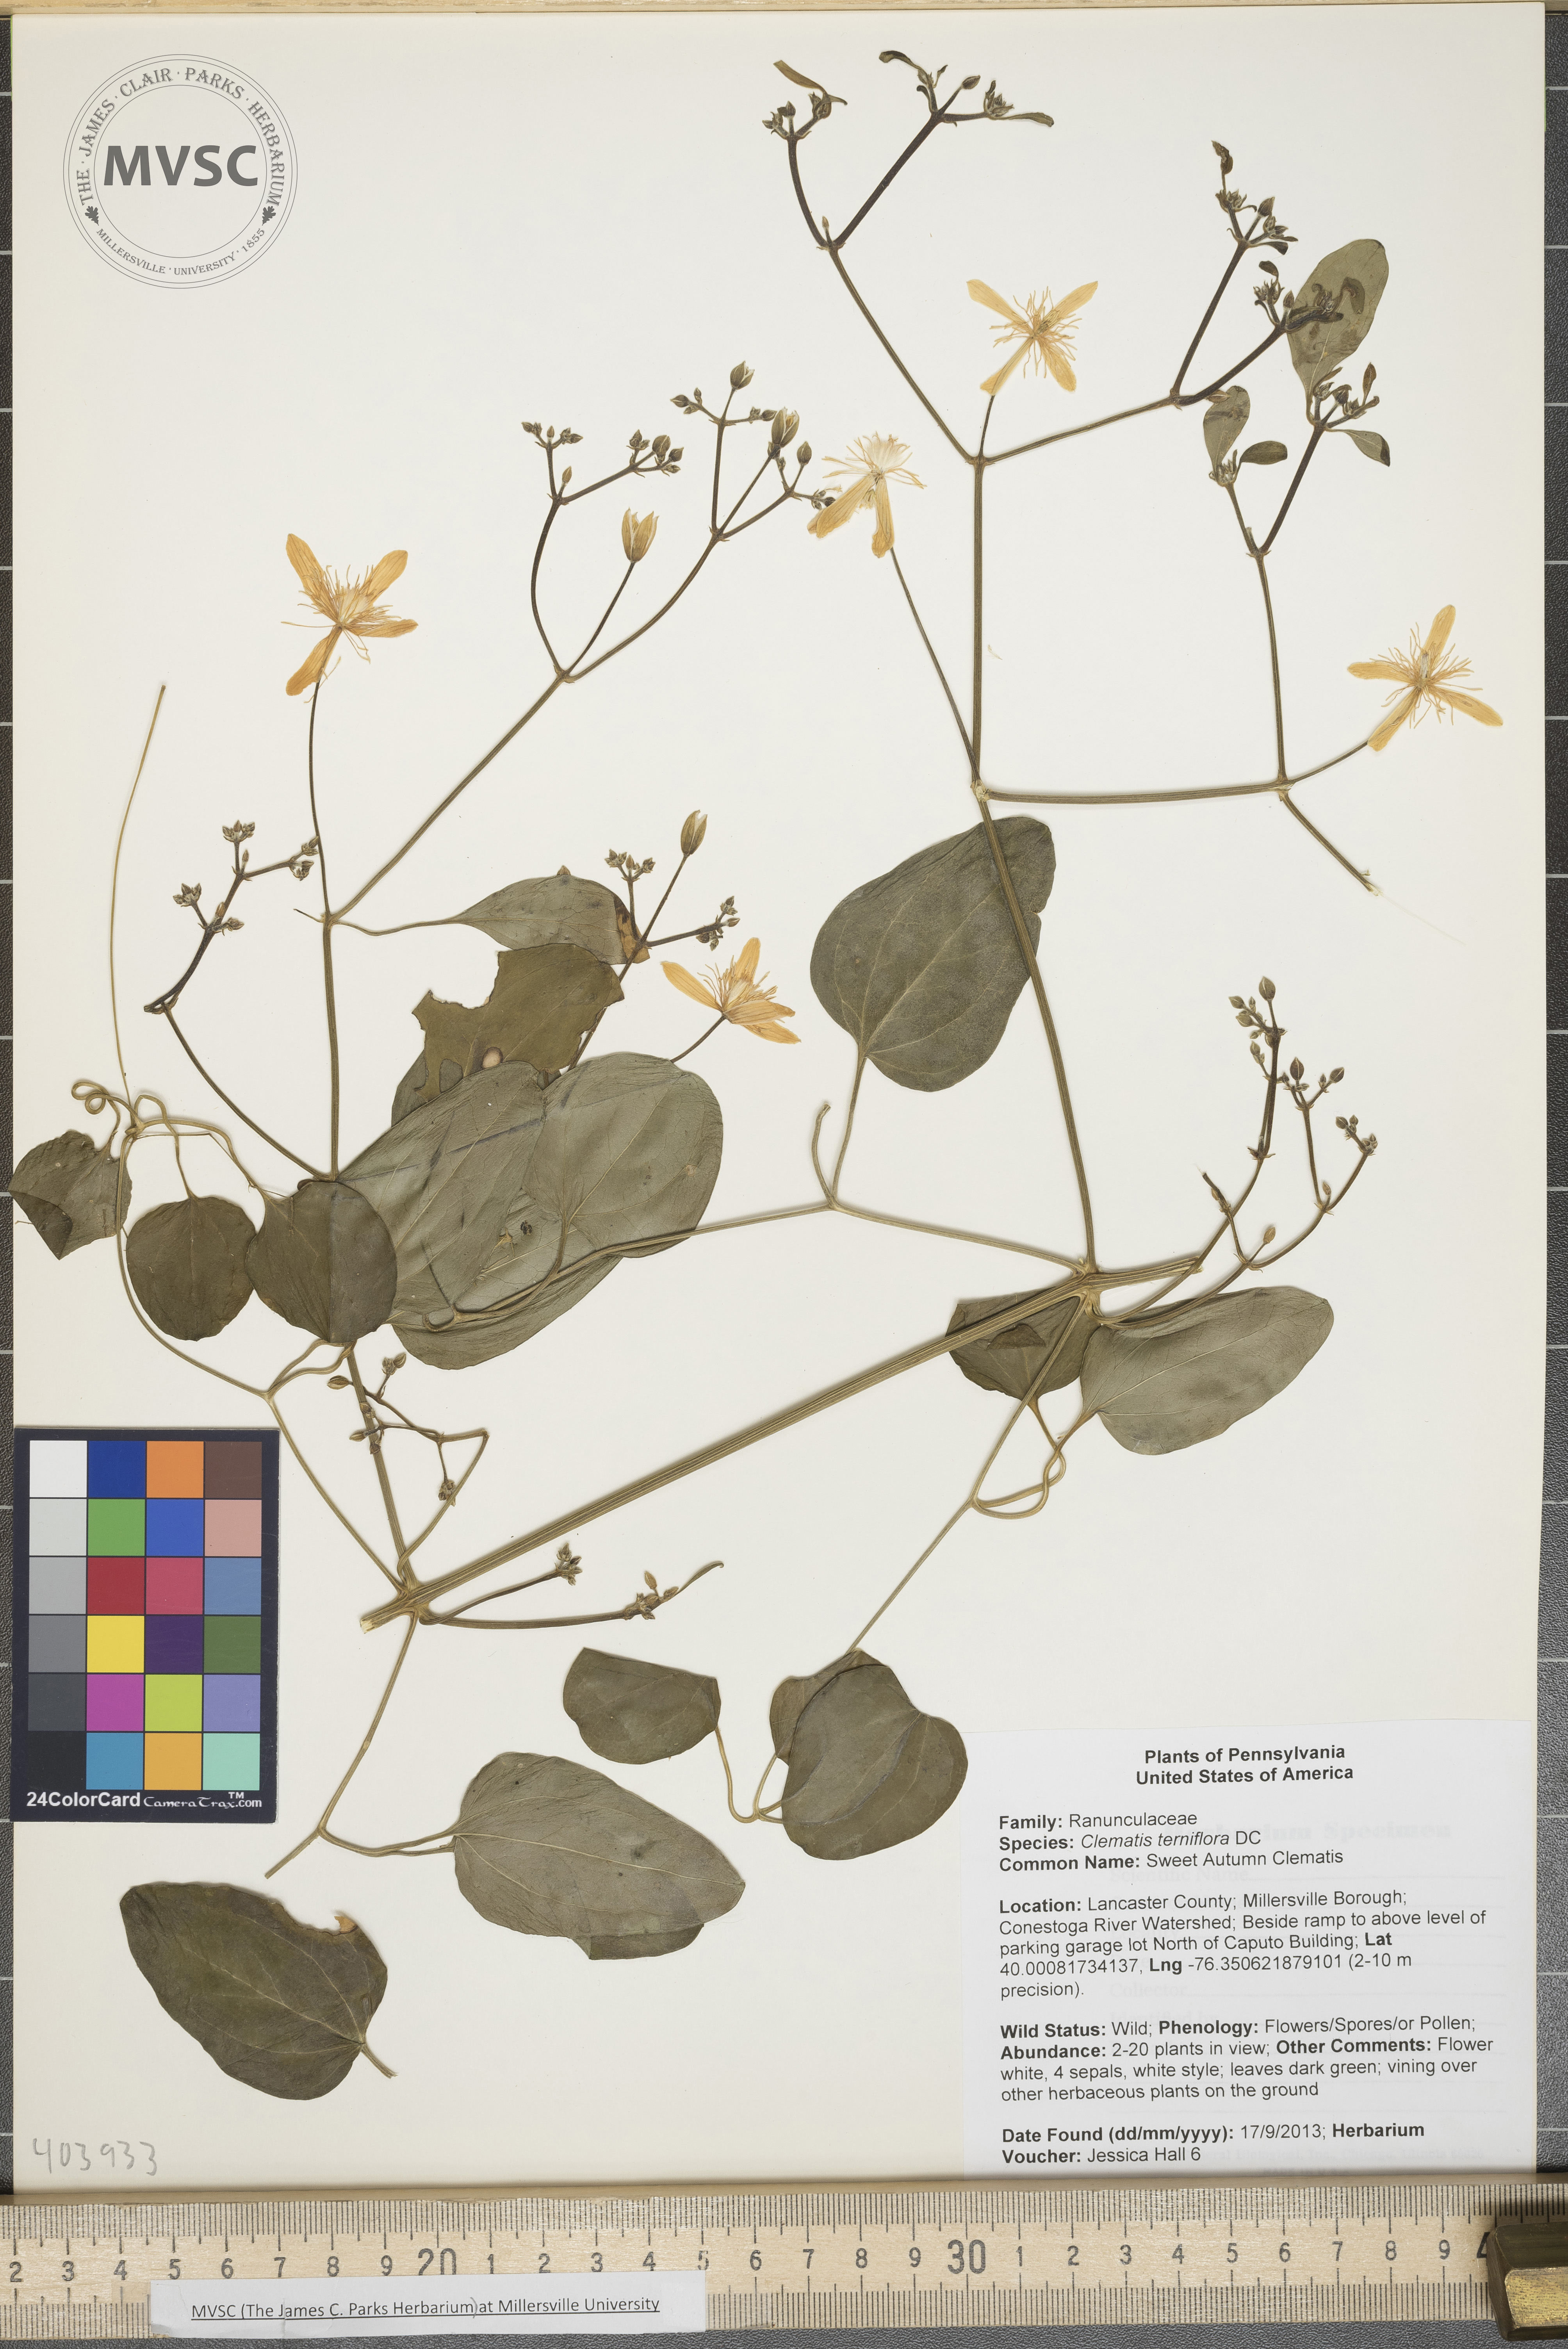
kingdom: Plantae
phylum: Tracheophyta
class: Magnoliopsida
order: Ranunculales
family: Ranunculaceae
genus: Clematis
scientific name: Clematis terniflora
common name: Sweet Autumn Clematis
